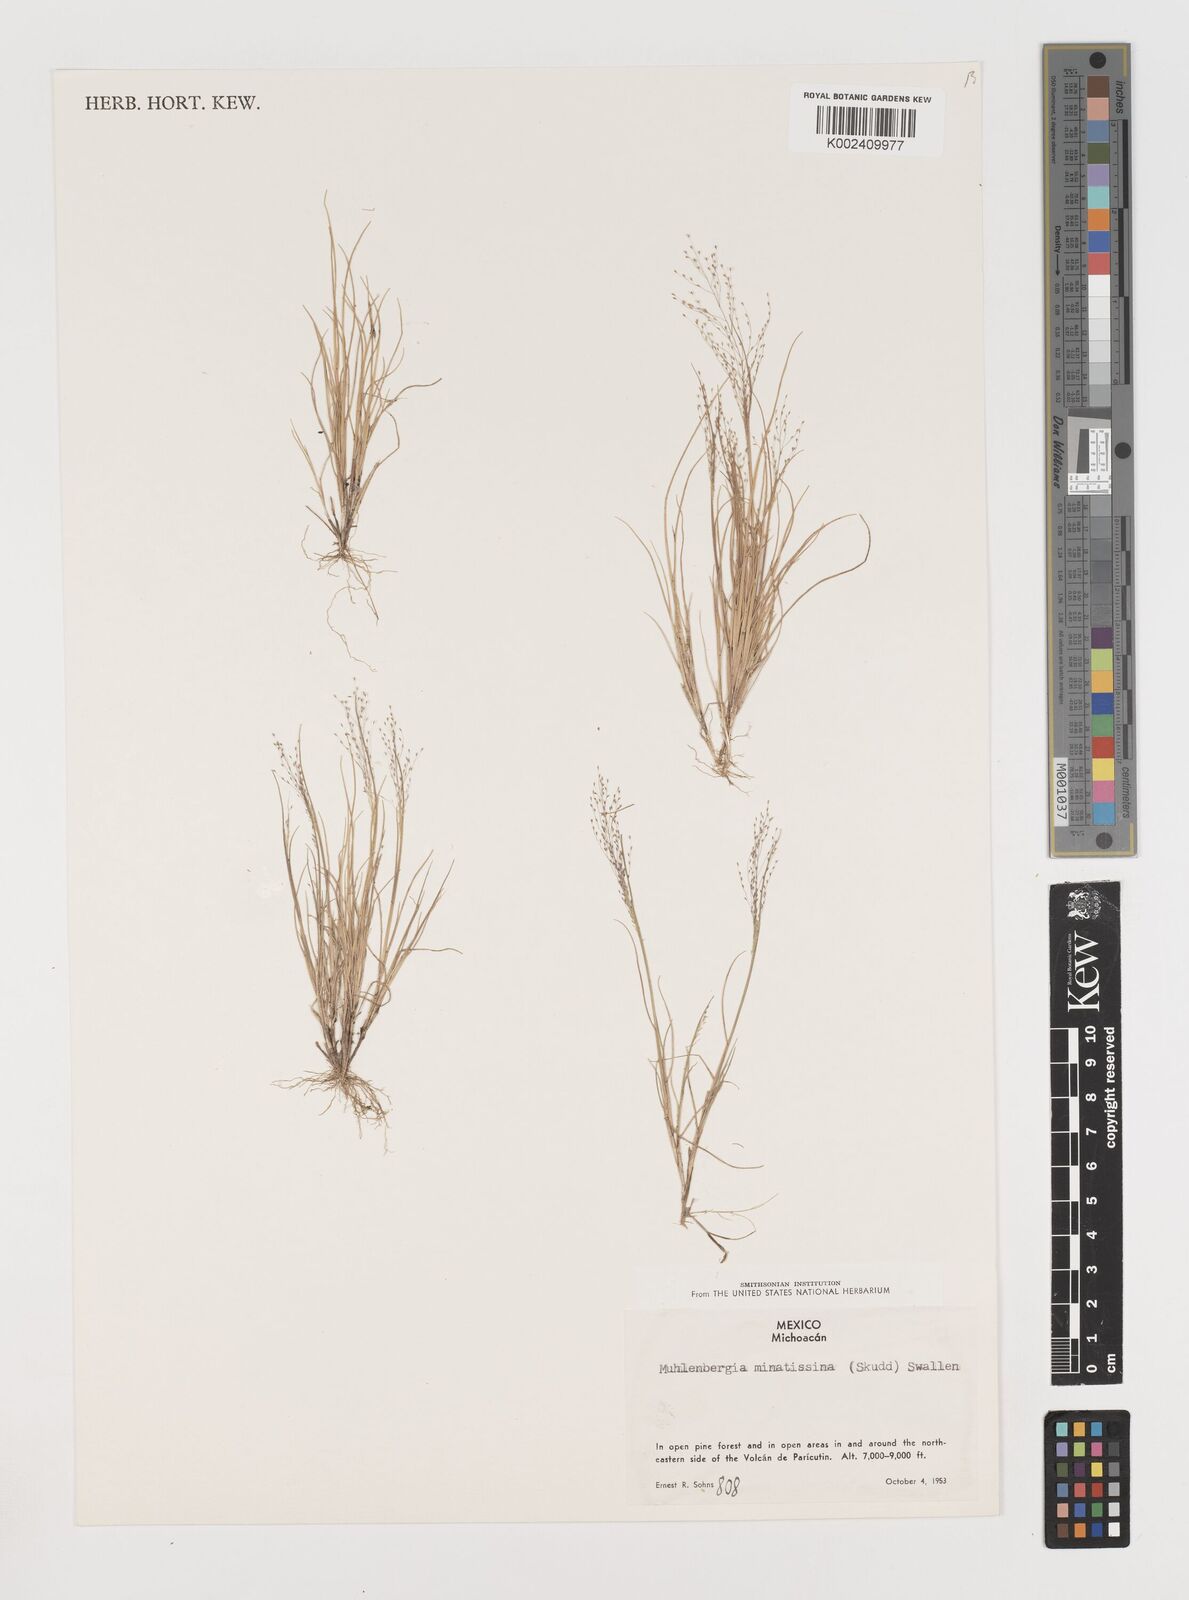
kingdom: Plantae
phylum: Tracheophyta
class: Liliopsida
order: Poales
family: Poaceae
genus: Muhlenbergia
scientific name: Muhlenbergia minutissima
